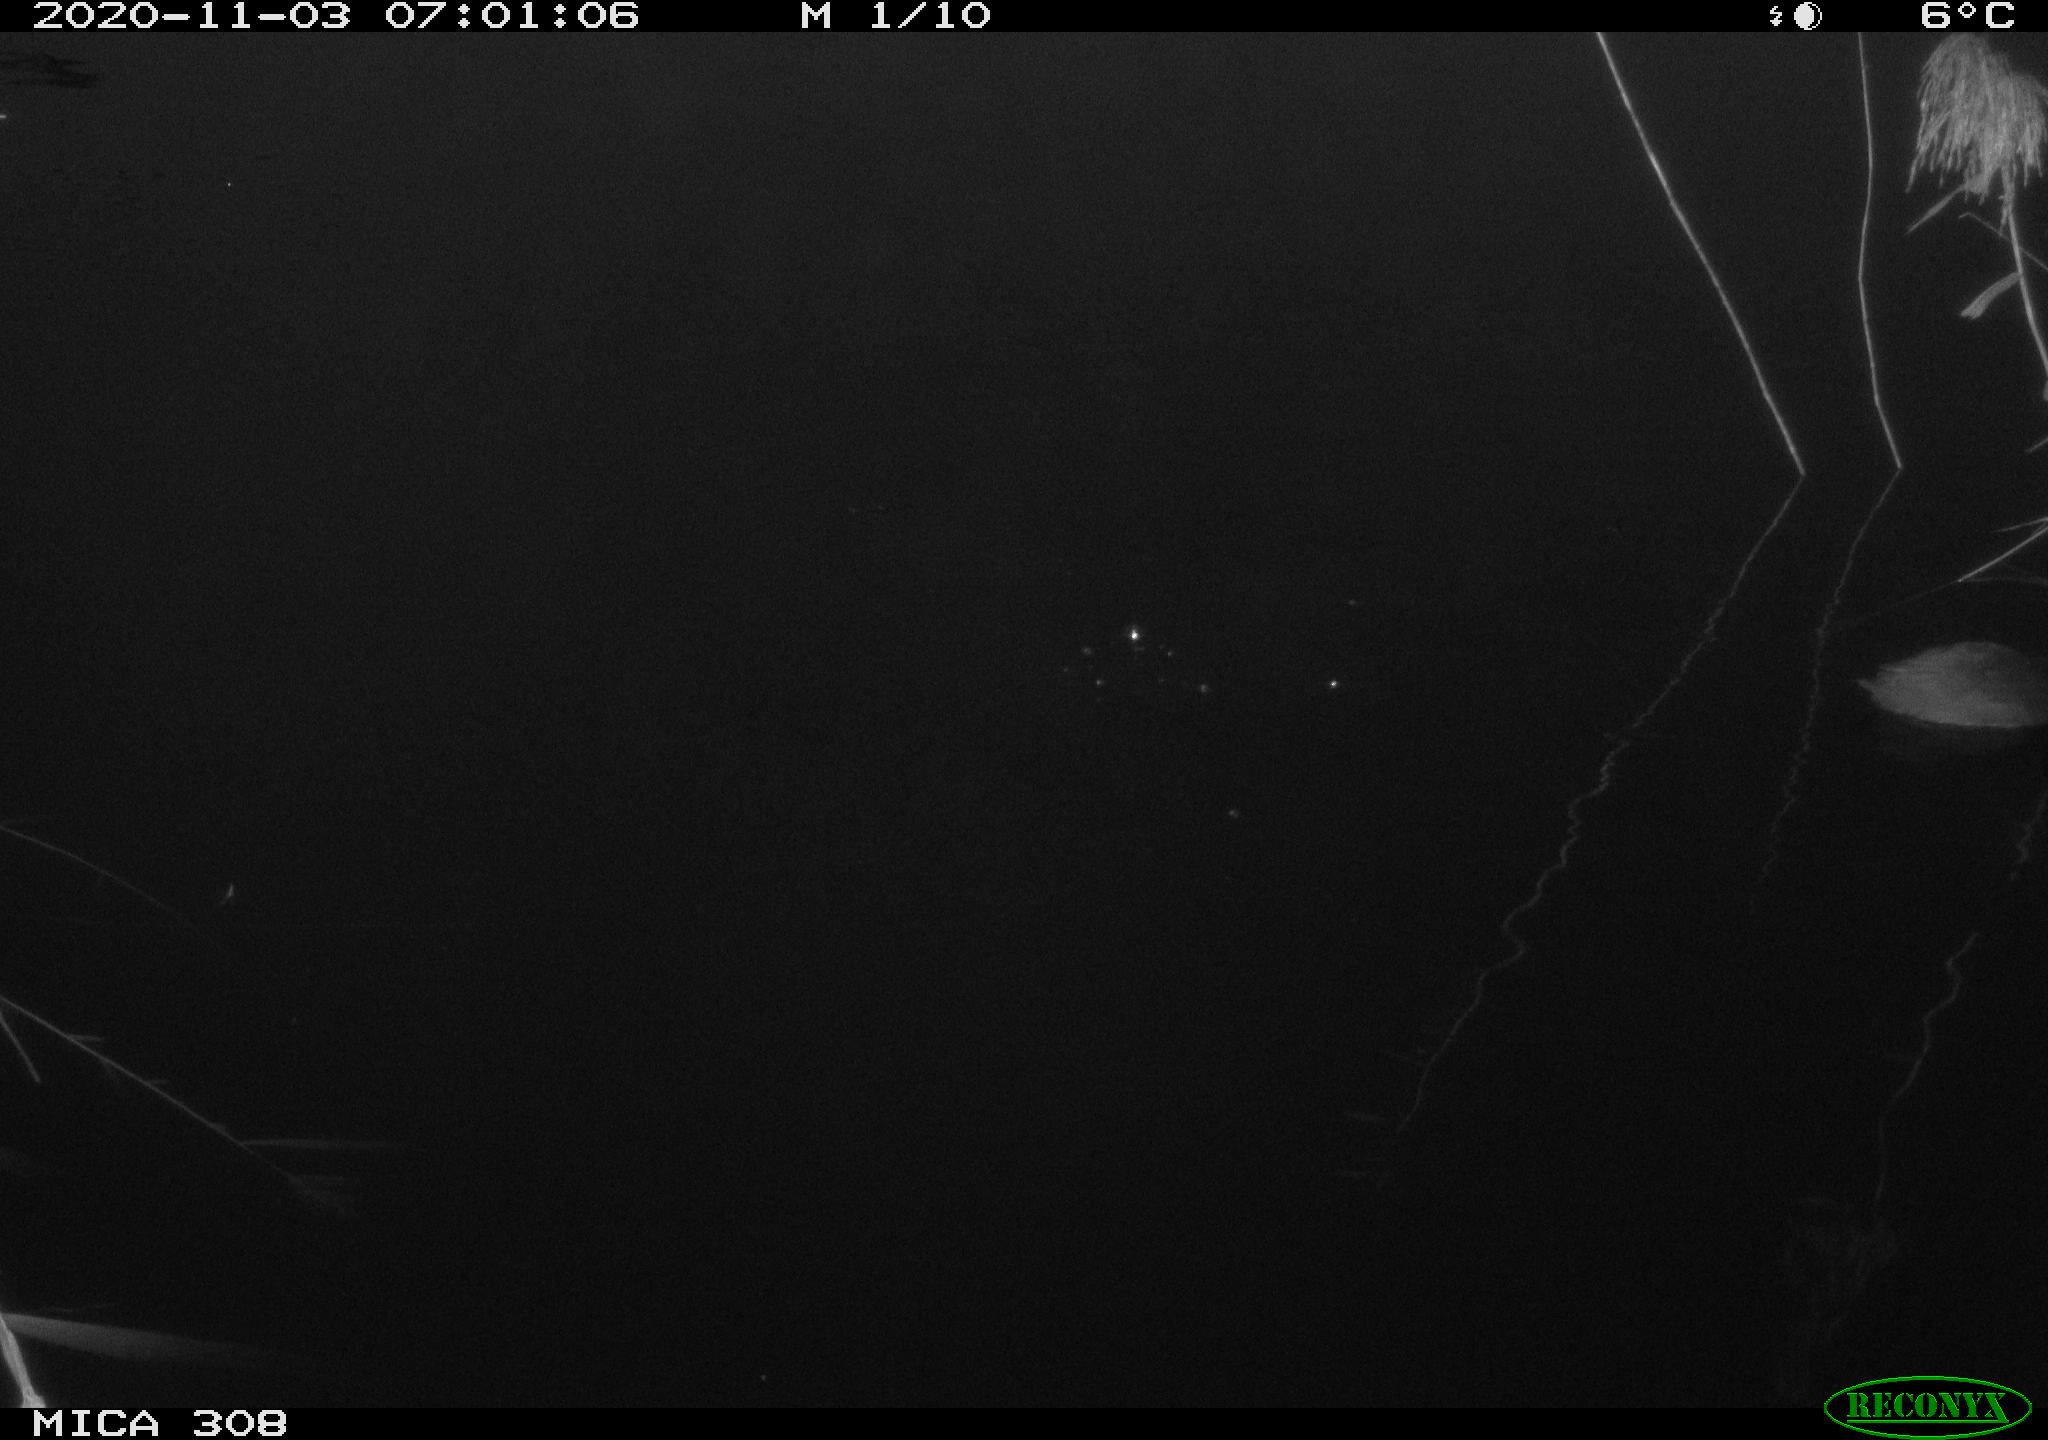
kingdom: Animalia
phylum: Chordata
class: Aves
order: Gruiformes
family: Rallidae
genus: Fulica
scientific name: Fulica atra
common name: Eurasian coot
